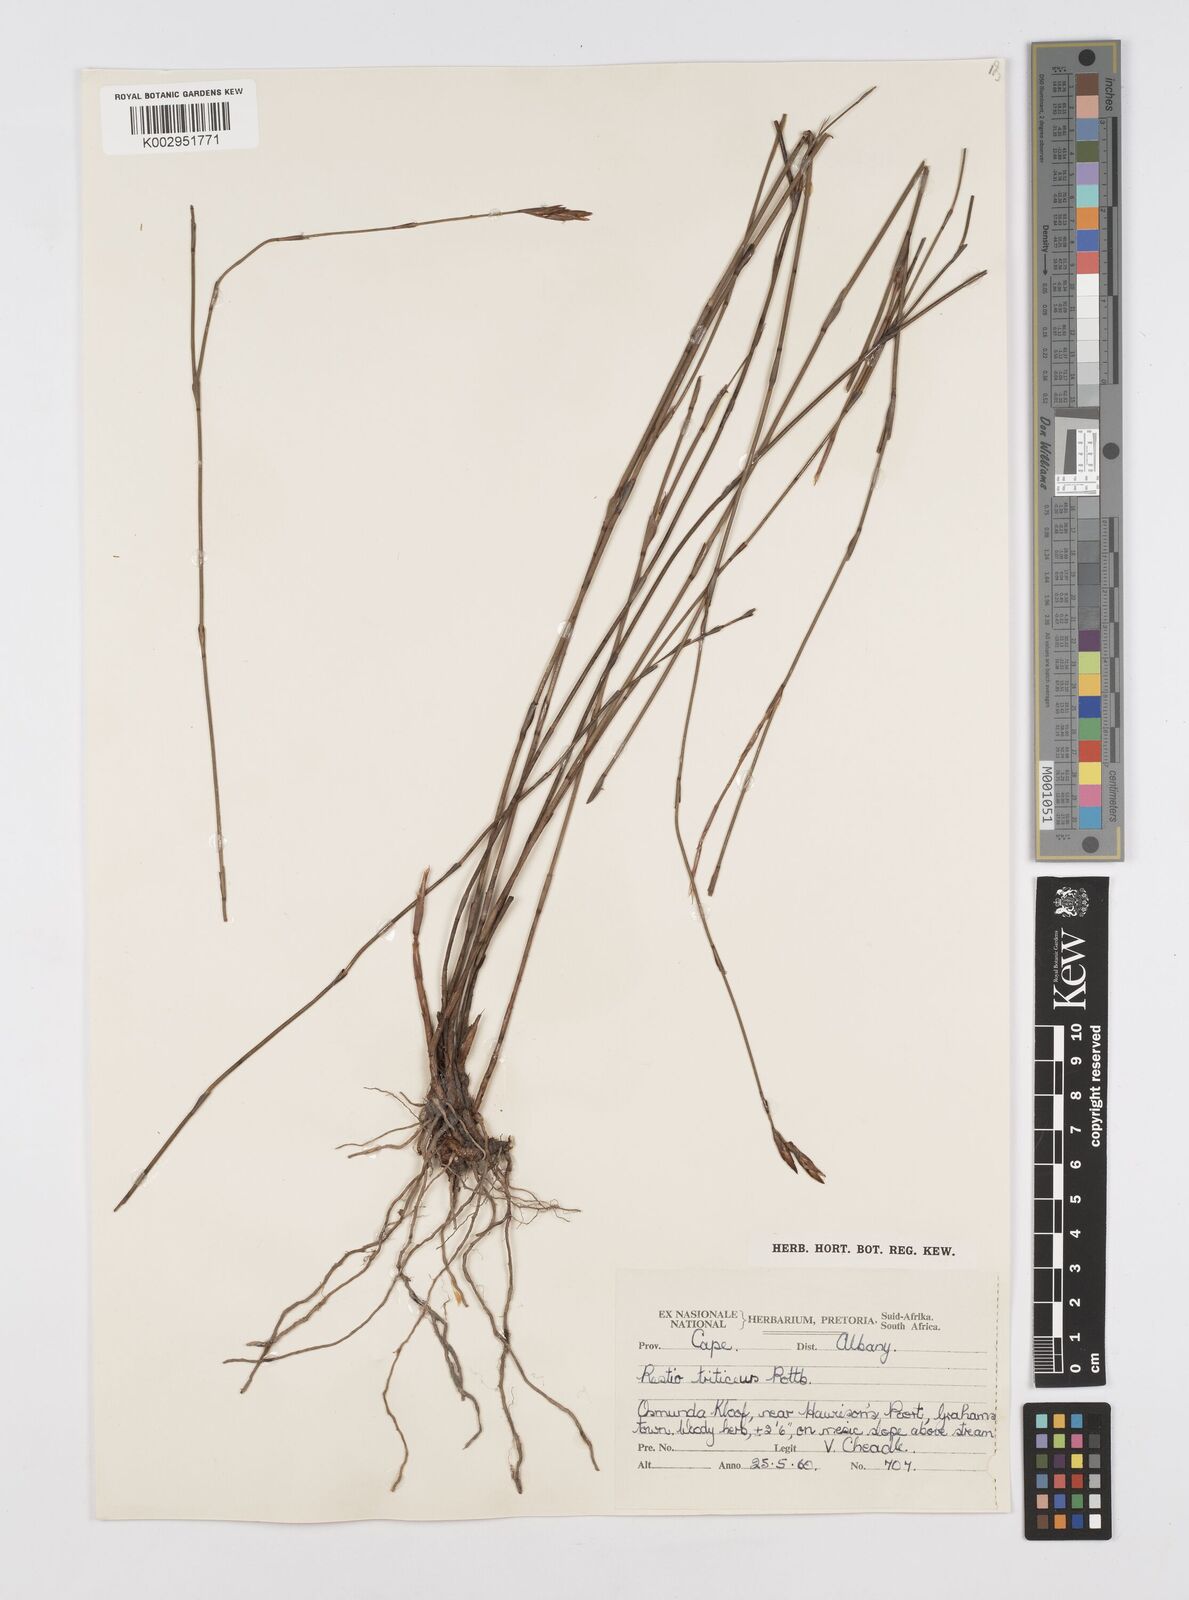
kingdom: Plantae
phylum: Tracheophyta
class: Liliopsida
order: Poales
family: Restionaceae
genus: Restio
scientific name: Restio triticeus
